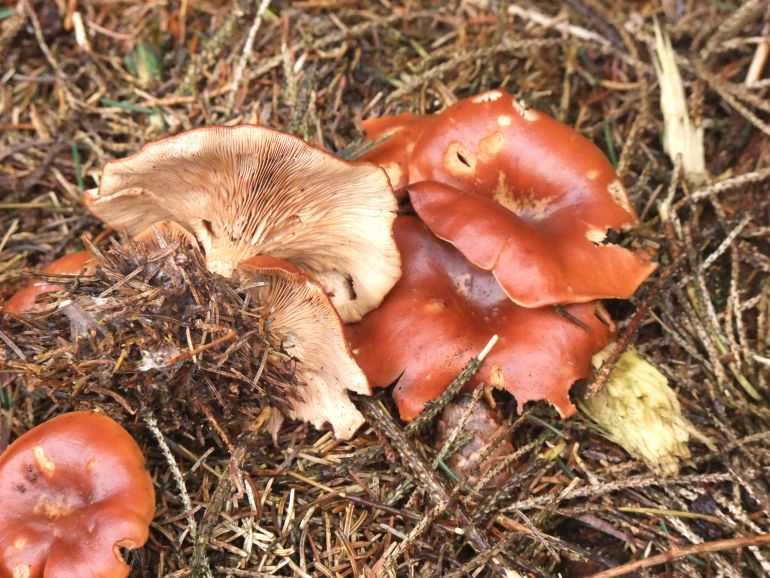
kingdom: Fungi
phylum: Basidiomycota
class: Agaricomycetes
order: Agaricales
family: Tricholomataceae
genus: Paralepista
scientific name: Paralepista flaccida
